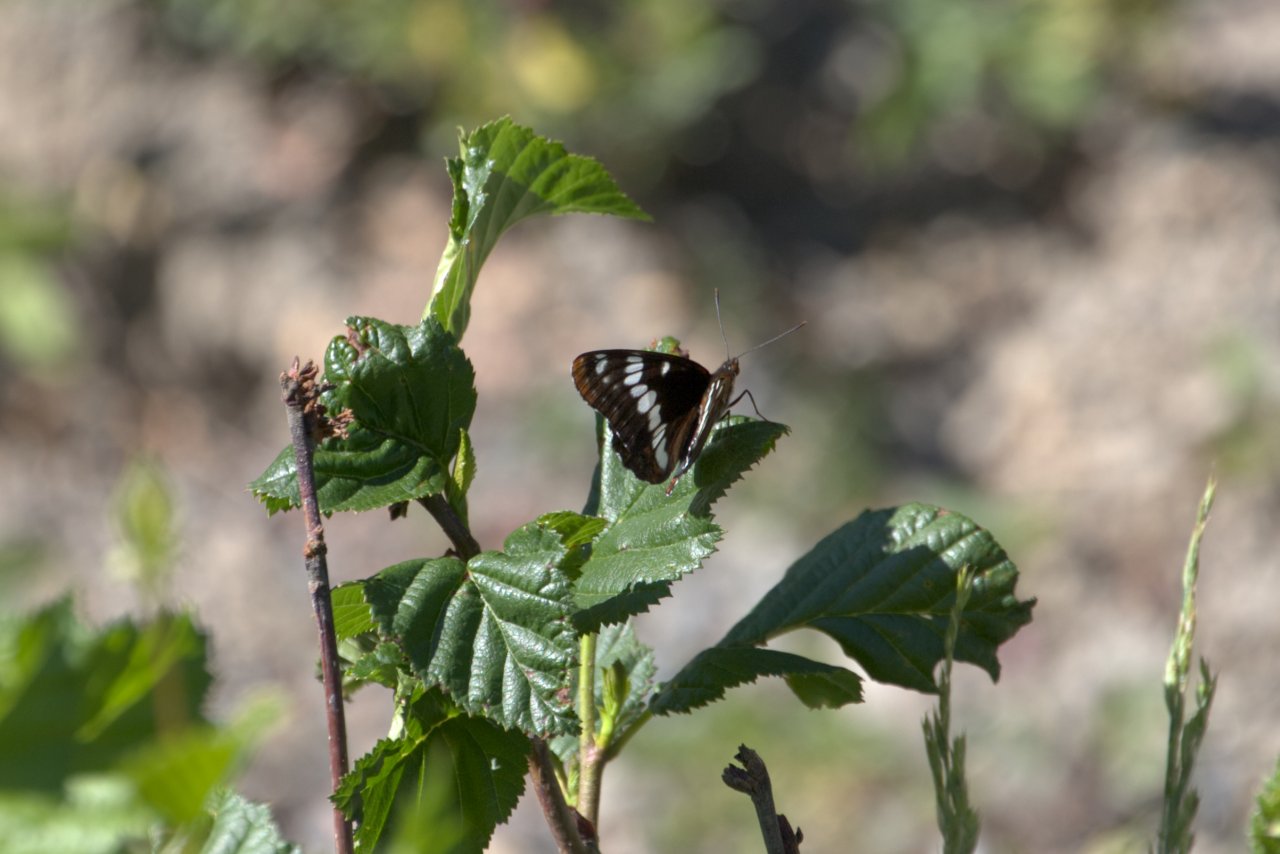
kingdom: Animalia
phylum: Arthropoda
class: Insecta
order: Lepidoptera
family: Nymphalidae
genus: Limenitis
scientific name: Limenitis lorquini
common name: Lorquin's Admiral
